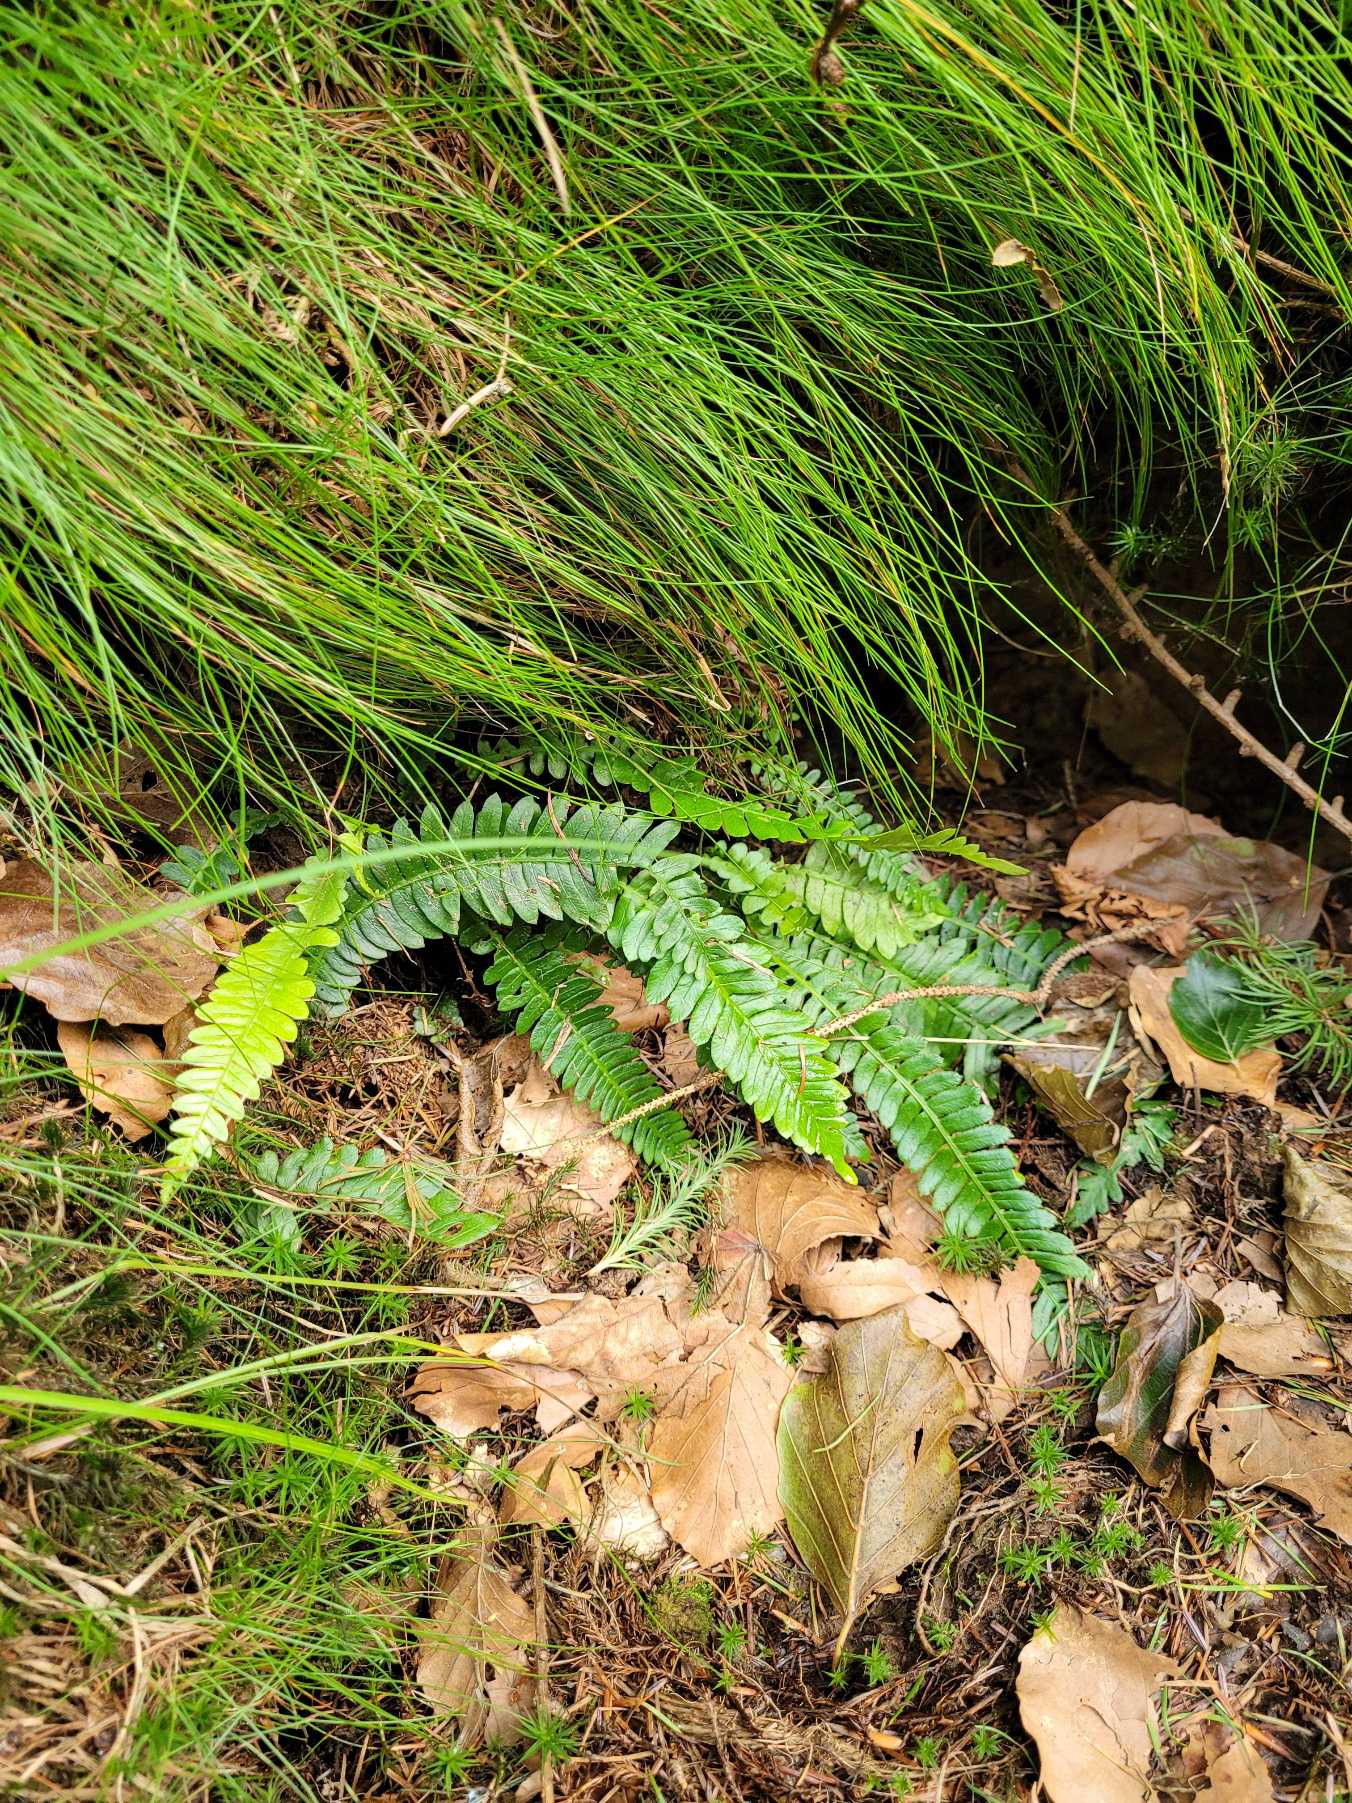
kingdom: Plantae
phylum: Tracheophyta
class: Polypodiopsida
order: Polypodiales
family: Blechnaceae
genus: Struthiopteris
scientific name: Struthiopteris spicant
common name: Kambregne
